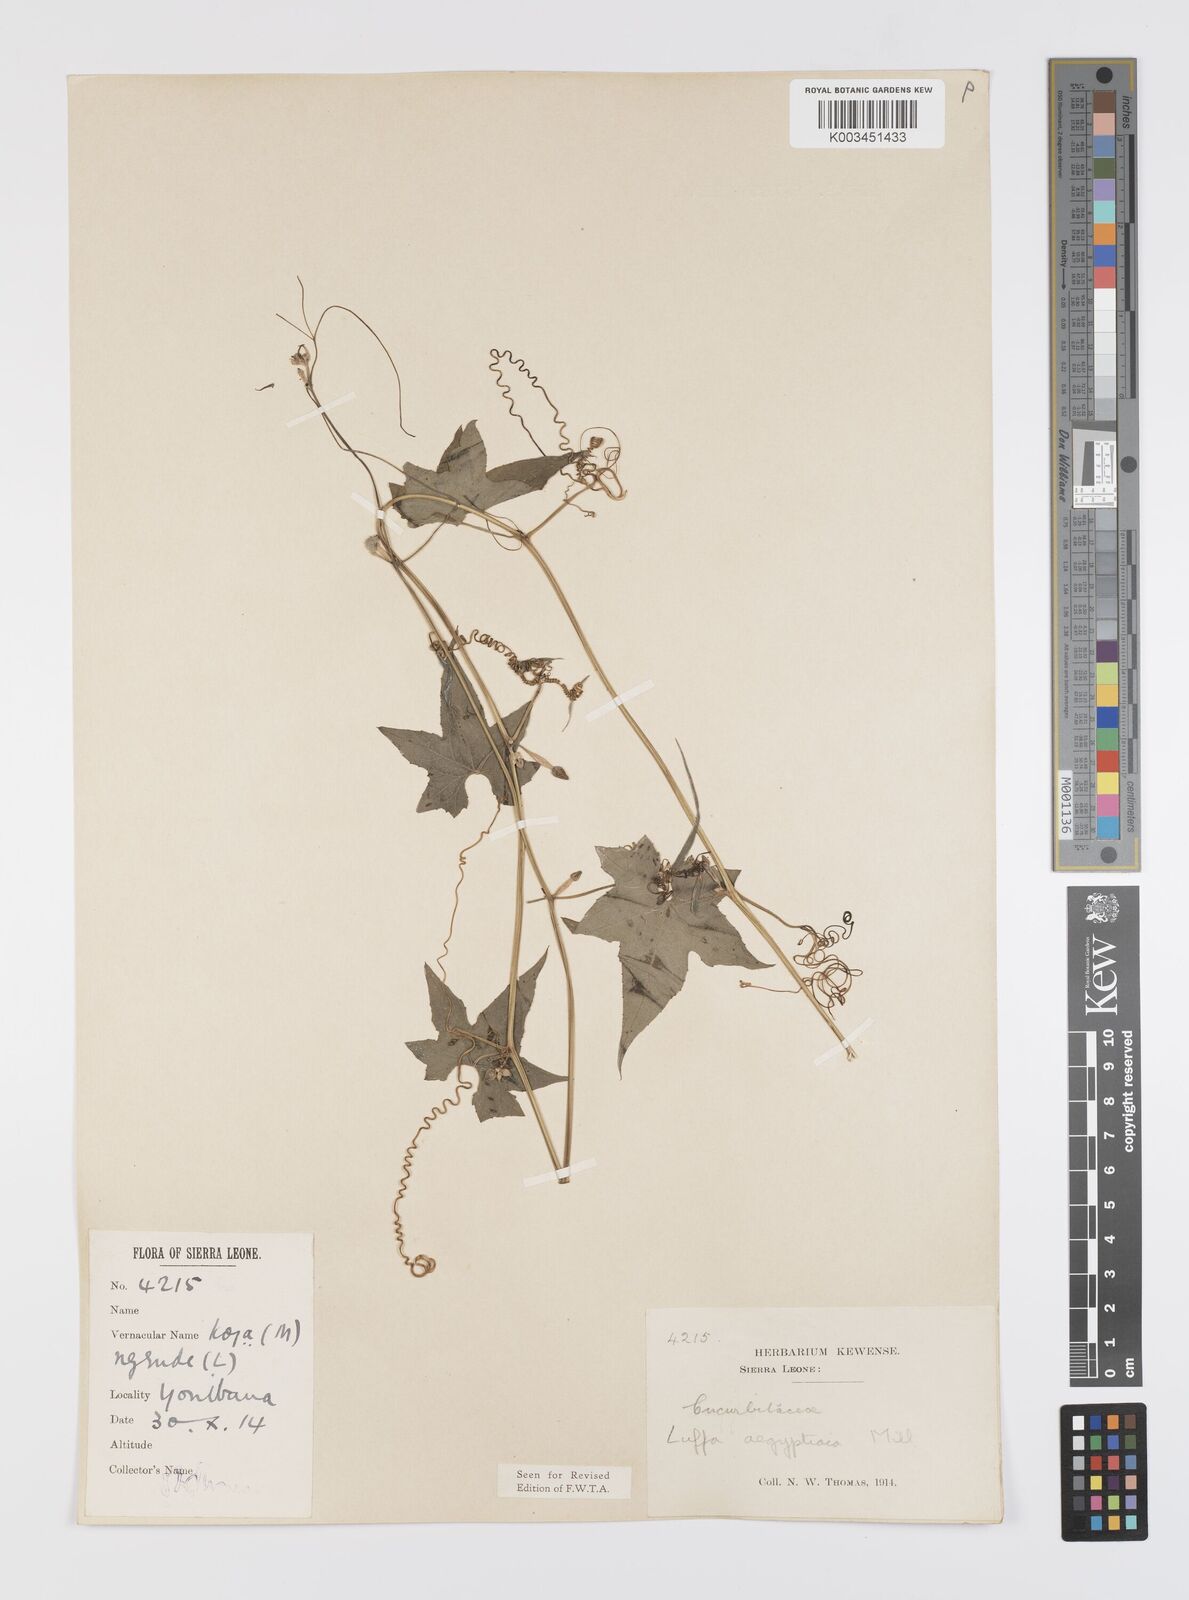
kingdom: Plantae
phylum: Tracheophyta
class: Magnoliopsida
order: Cucurbitales
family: Cucurbitaceae
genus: Luffa
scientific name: Luffa aegyptiaca
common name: Sponge gourd
